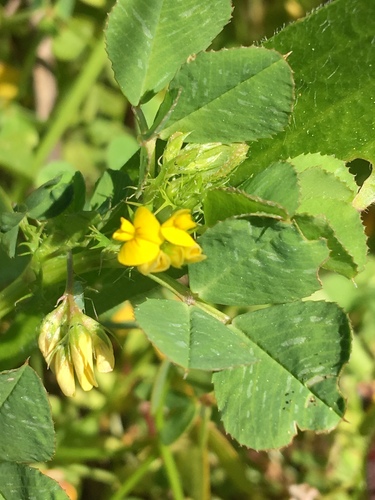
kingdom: Plantae
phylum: Tracheophyta
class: Magnoliopsida
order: Fabales
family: Fabaceae
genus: Medicago
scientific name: Medicago polymorpha
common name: Burclover
